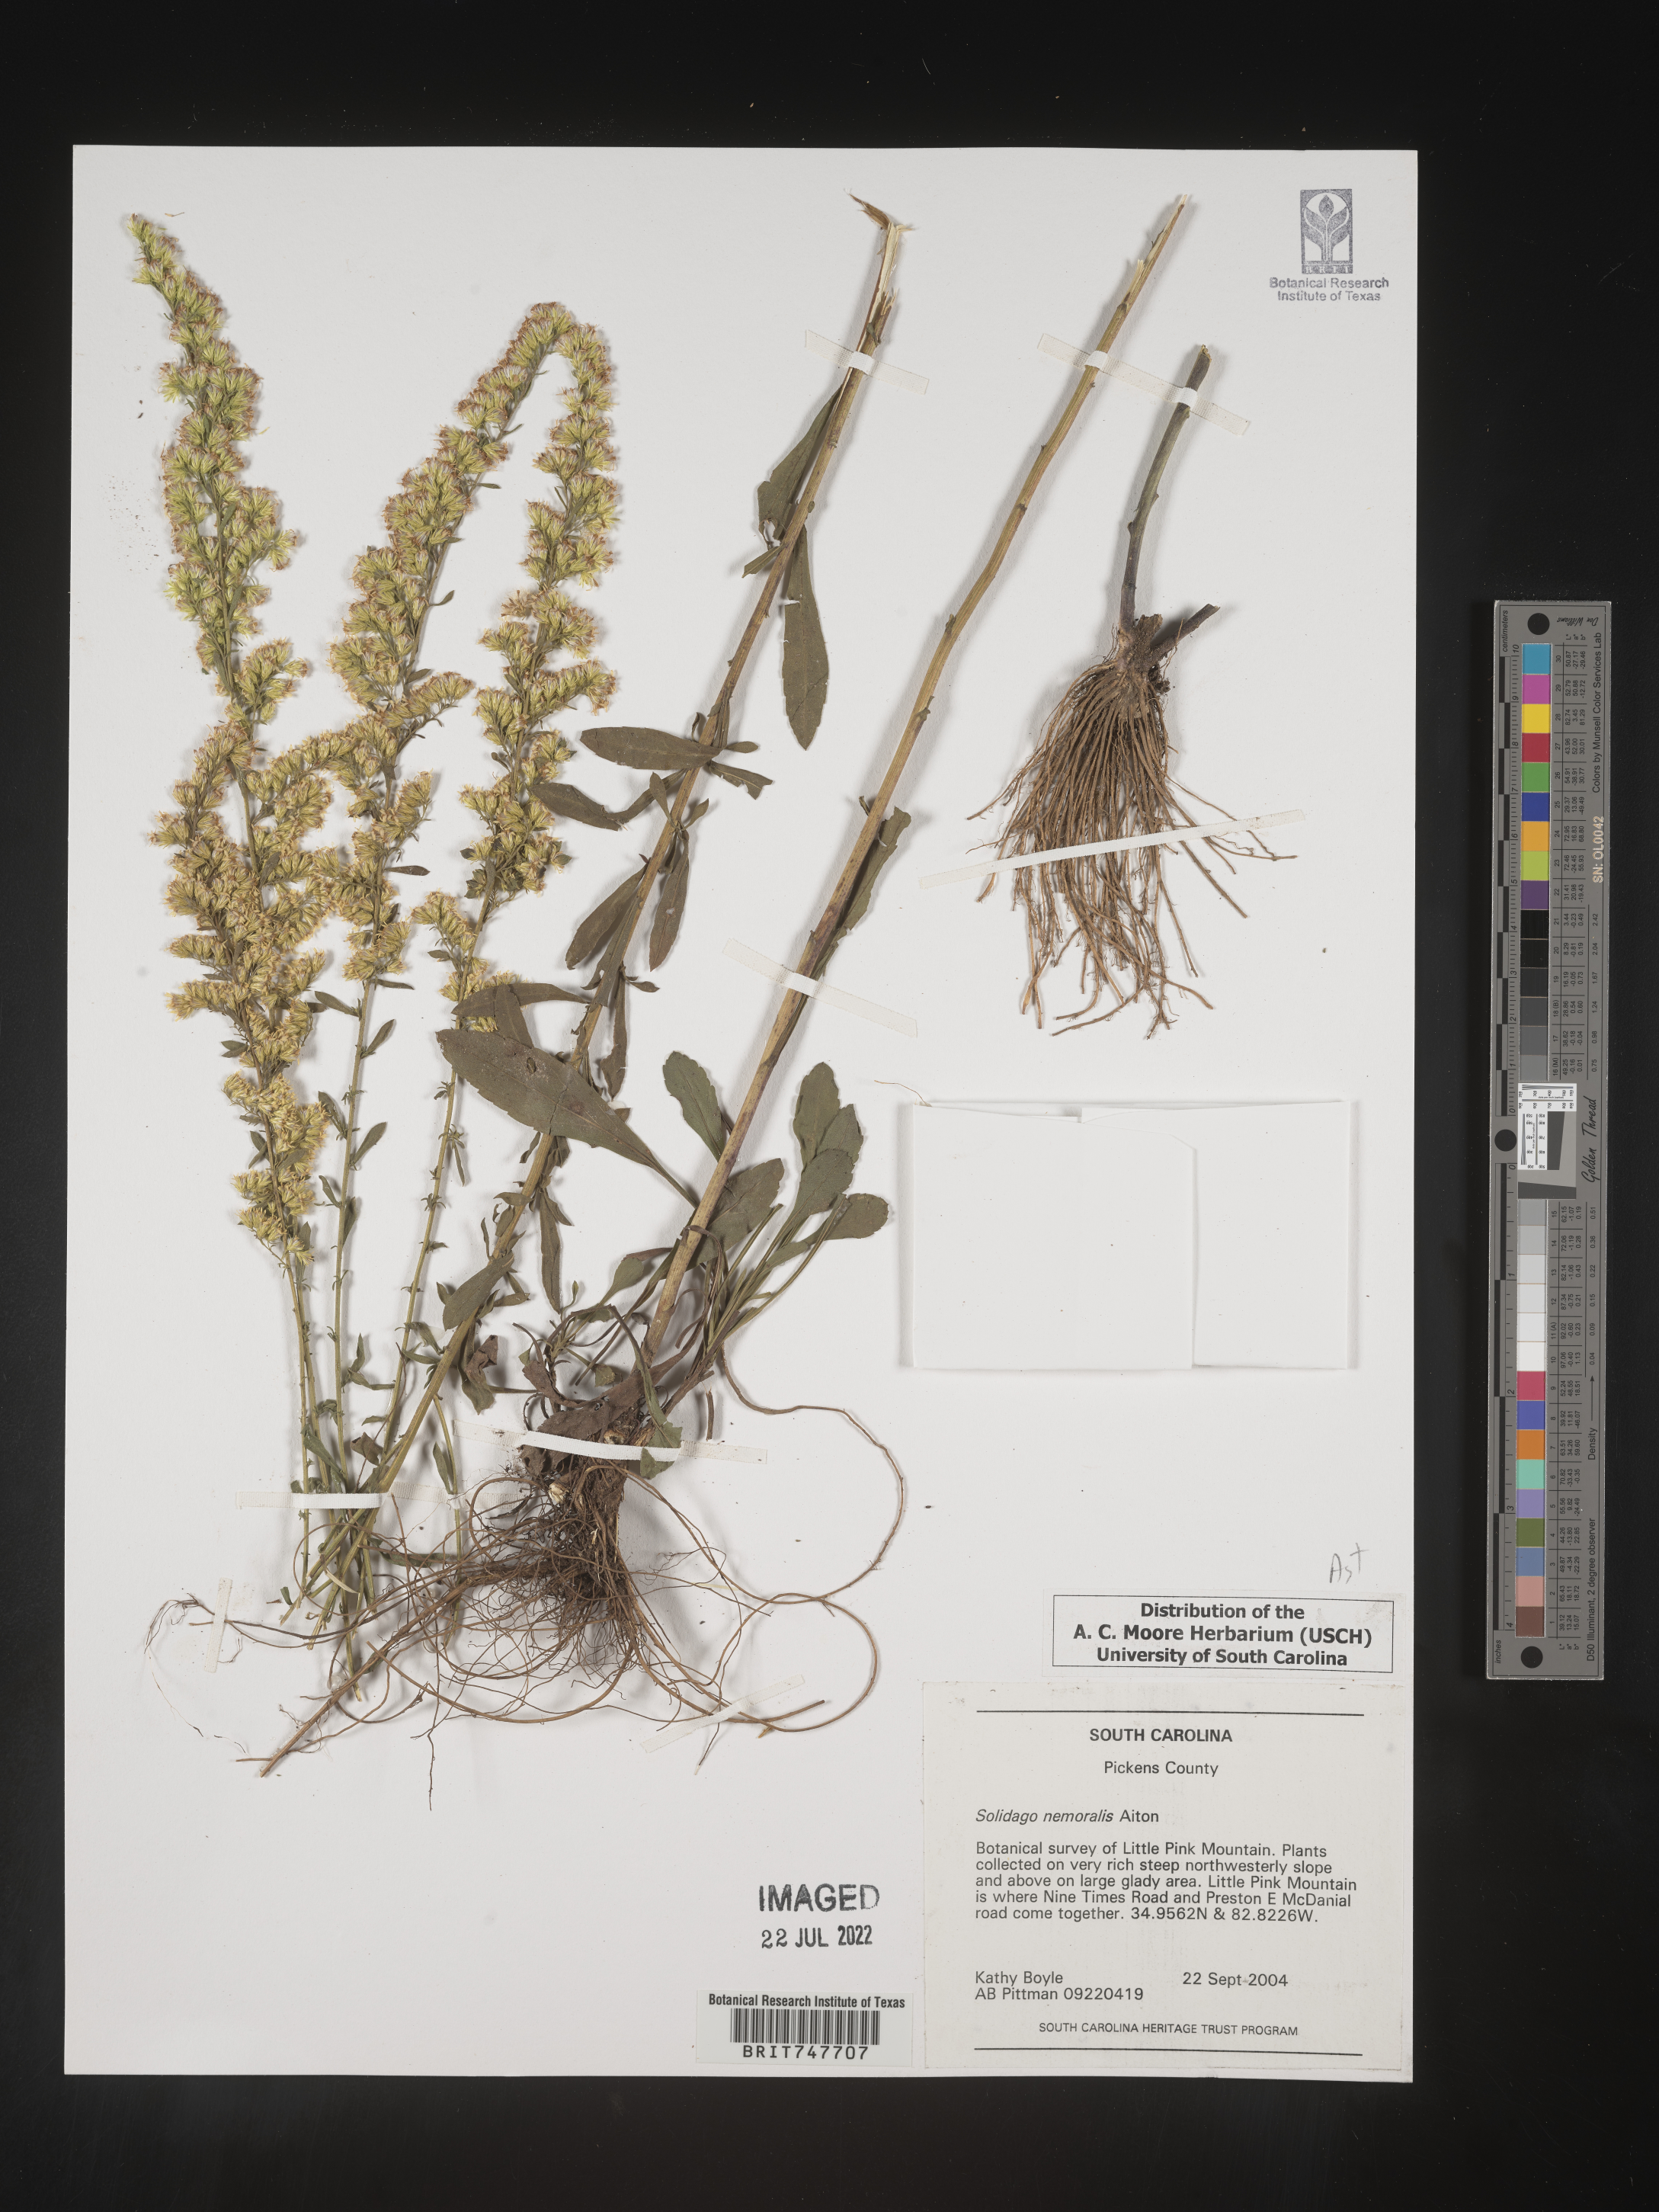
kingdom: Plantae
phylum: Tracheophyta
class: Magnoliopsida
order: Asterales
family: Asteraceae
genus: Solidago
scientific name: Solidago nemoralis
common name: Grey goldenrod
